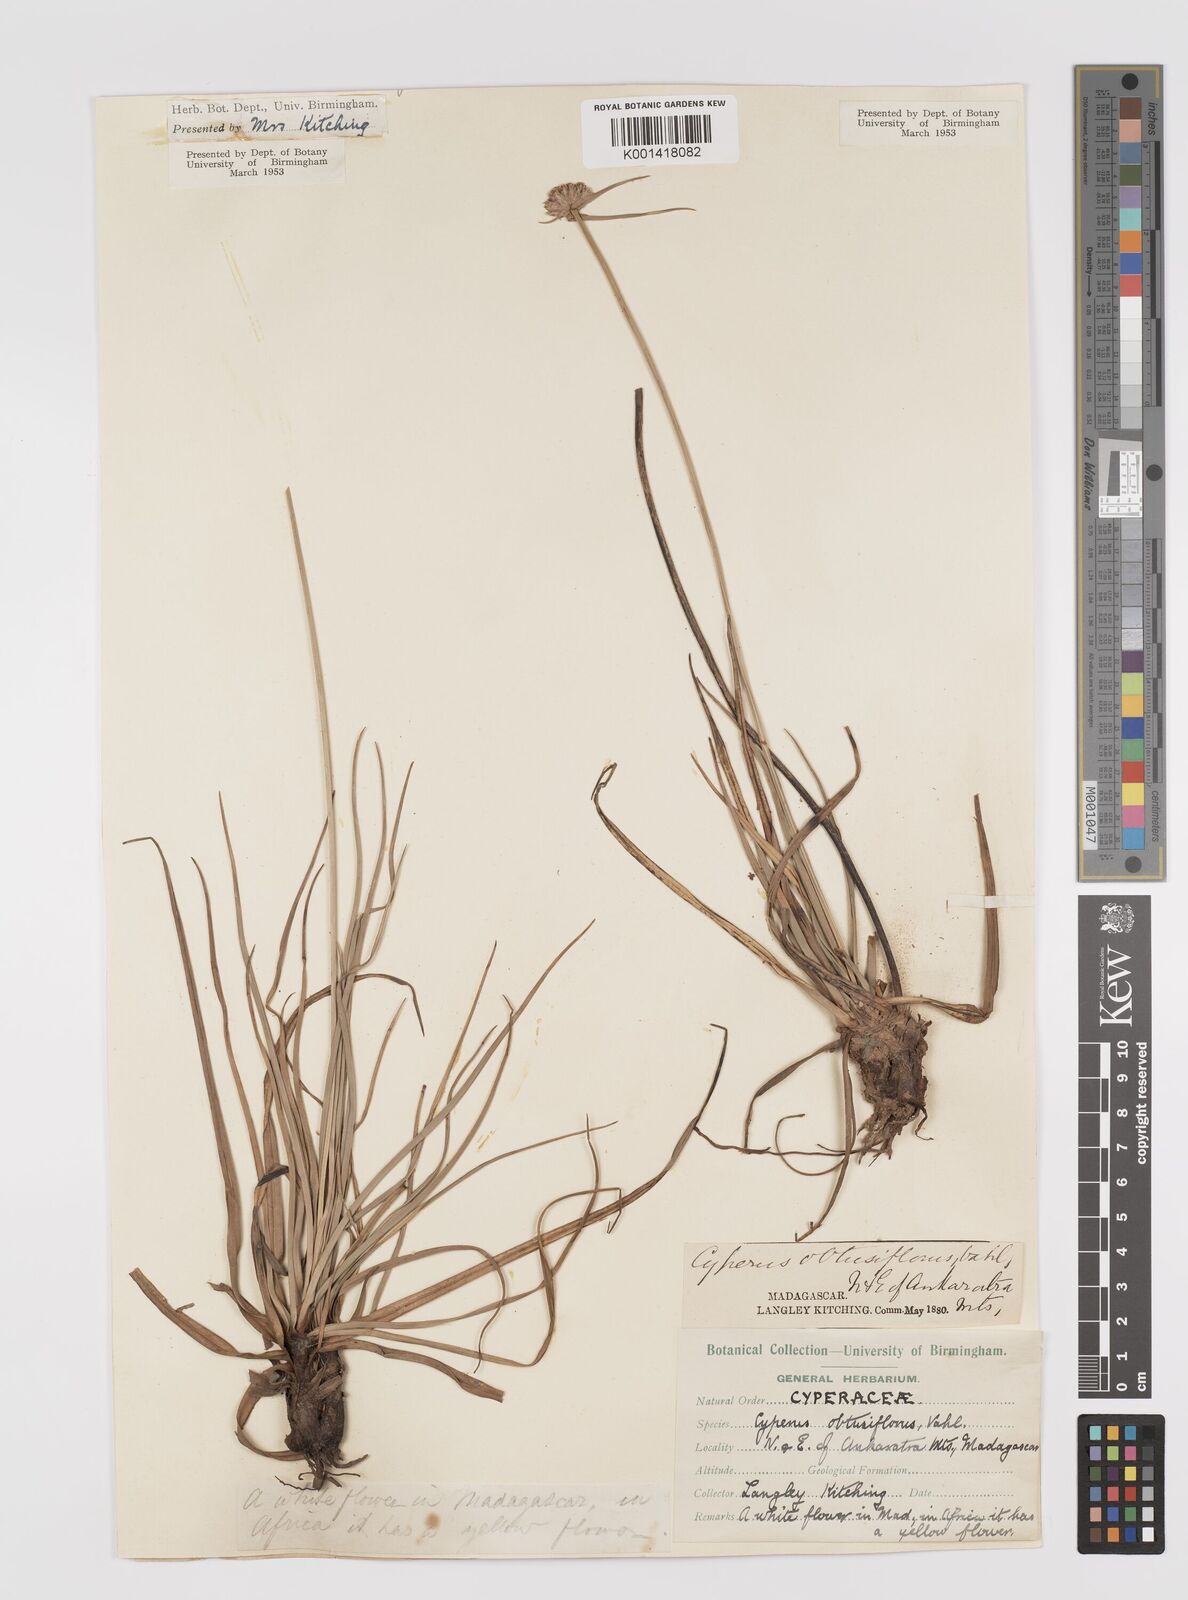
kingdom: Plantae
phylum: Tracheophyta
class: Liliopsida
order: Poales
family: Cyperaceae
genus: Cyperus
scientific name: Cyperus niveus
